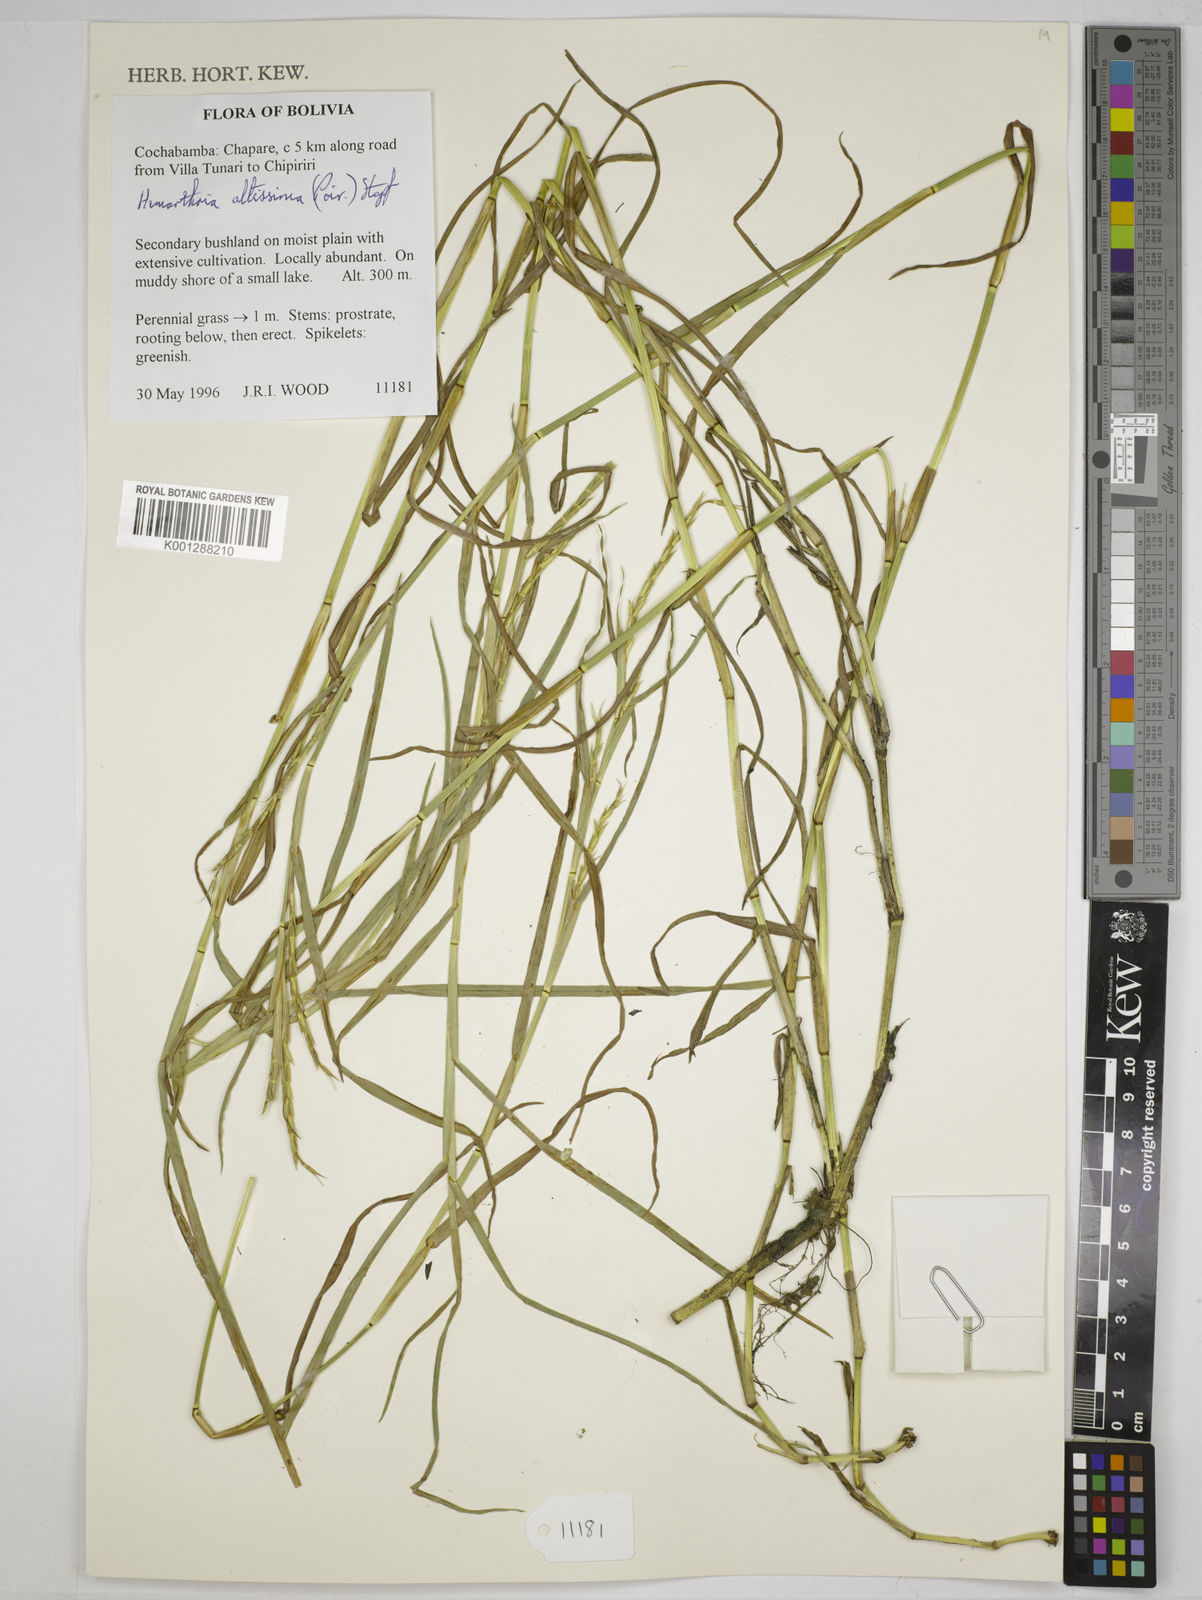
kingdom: Plantae
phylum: Tracheophyta
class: Liliopsida
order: Poales
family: Poaceae
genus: Hemarthria
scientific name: Hemarthria altissima
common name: African jointgrass
